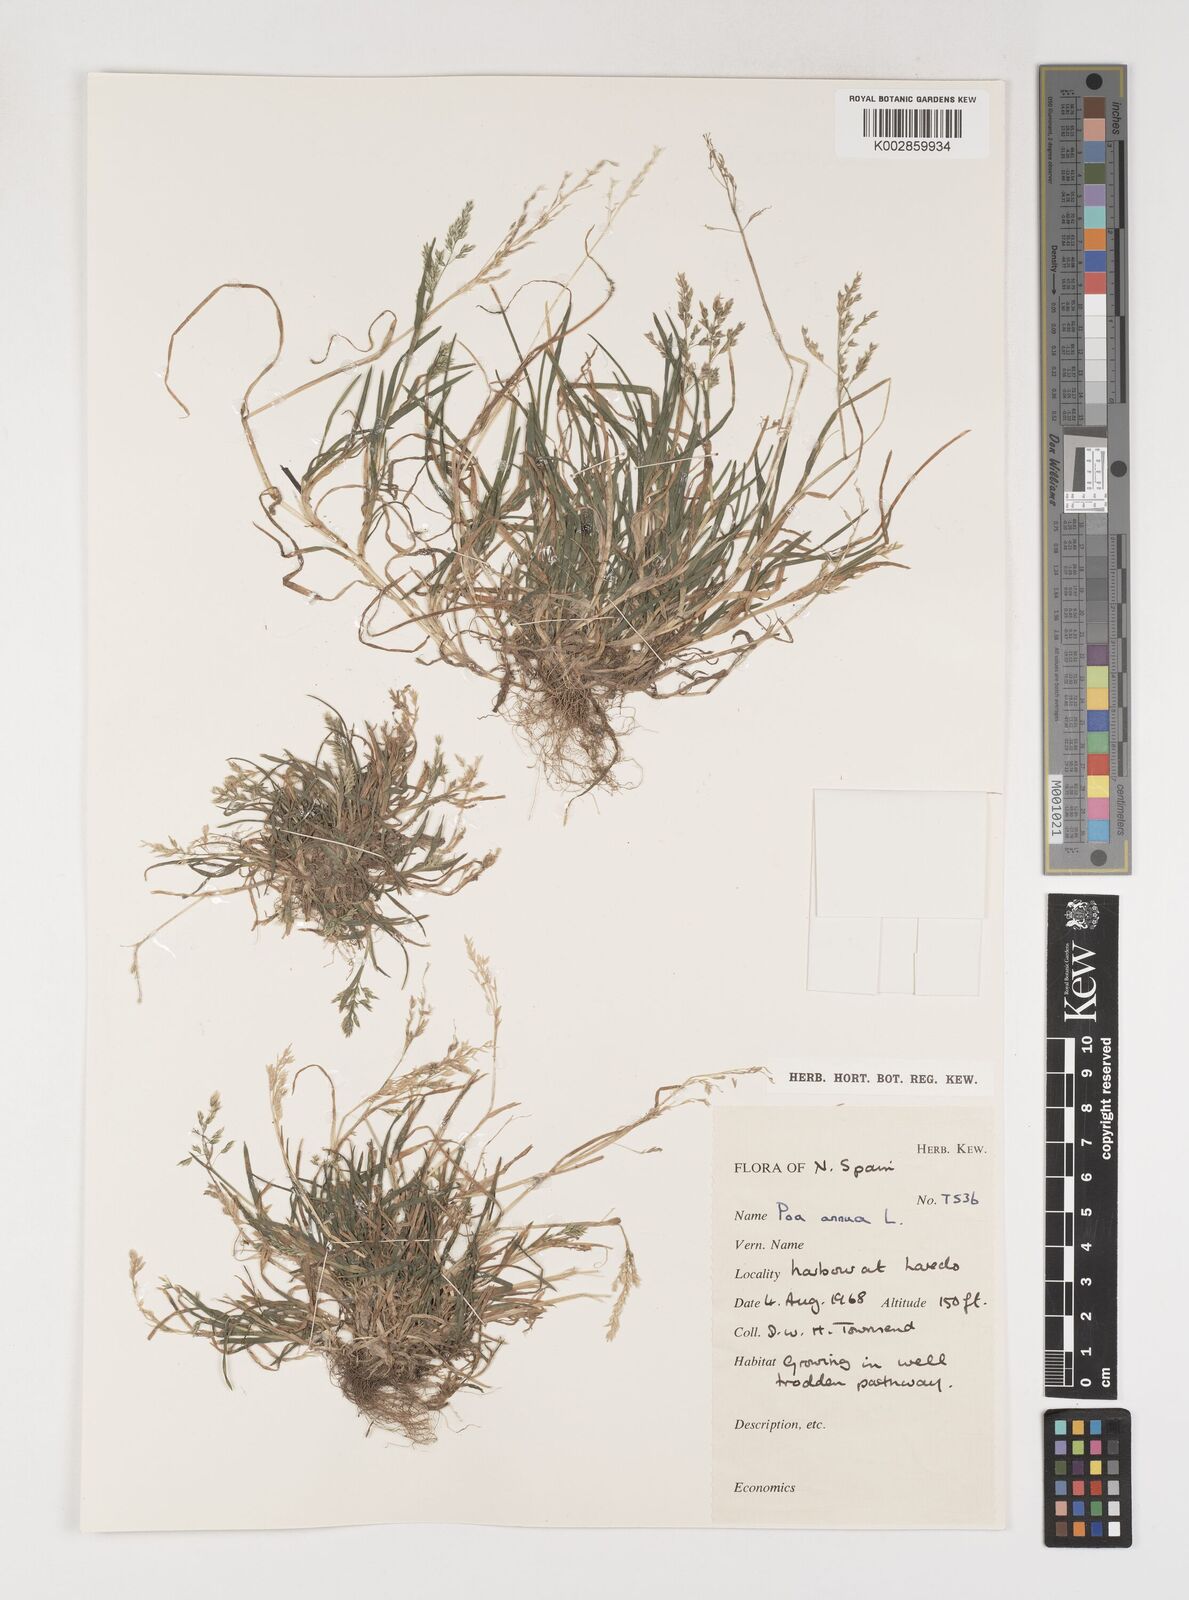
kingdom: Plantae
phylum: Tracheophyta
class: Liliopsida
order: Poales
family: Poaceae
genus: Poa
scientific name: Poa annua
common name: Annual bluegrass
